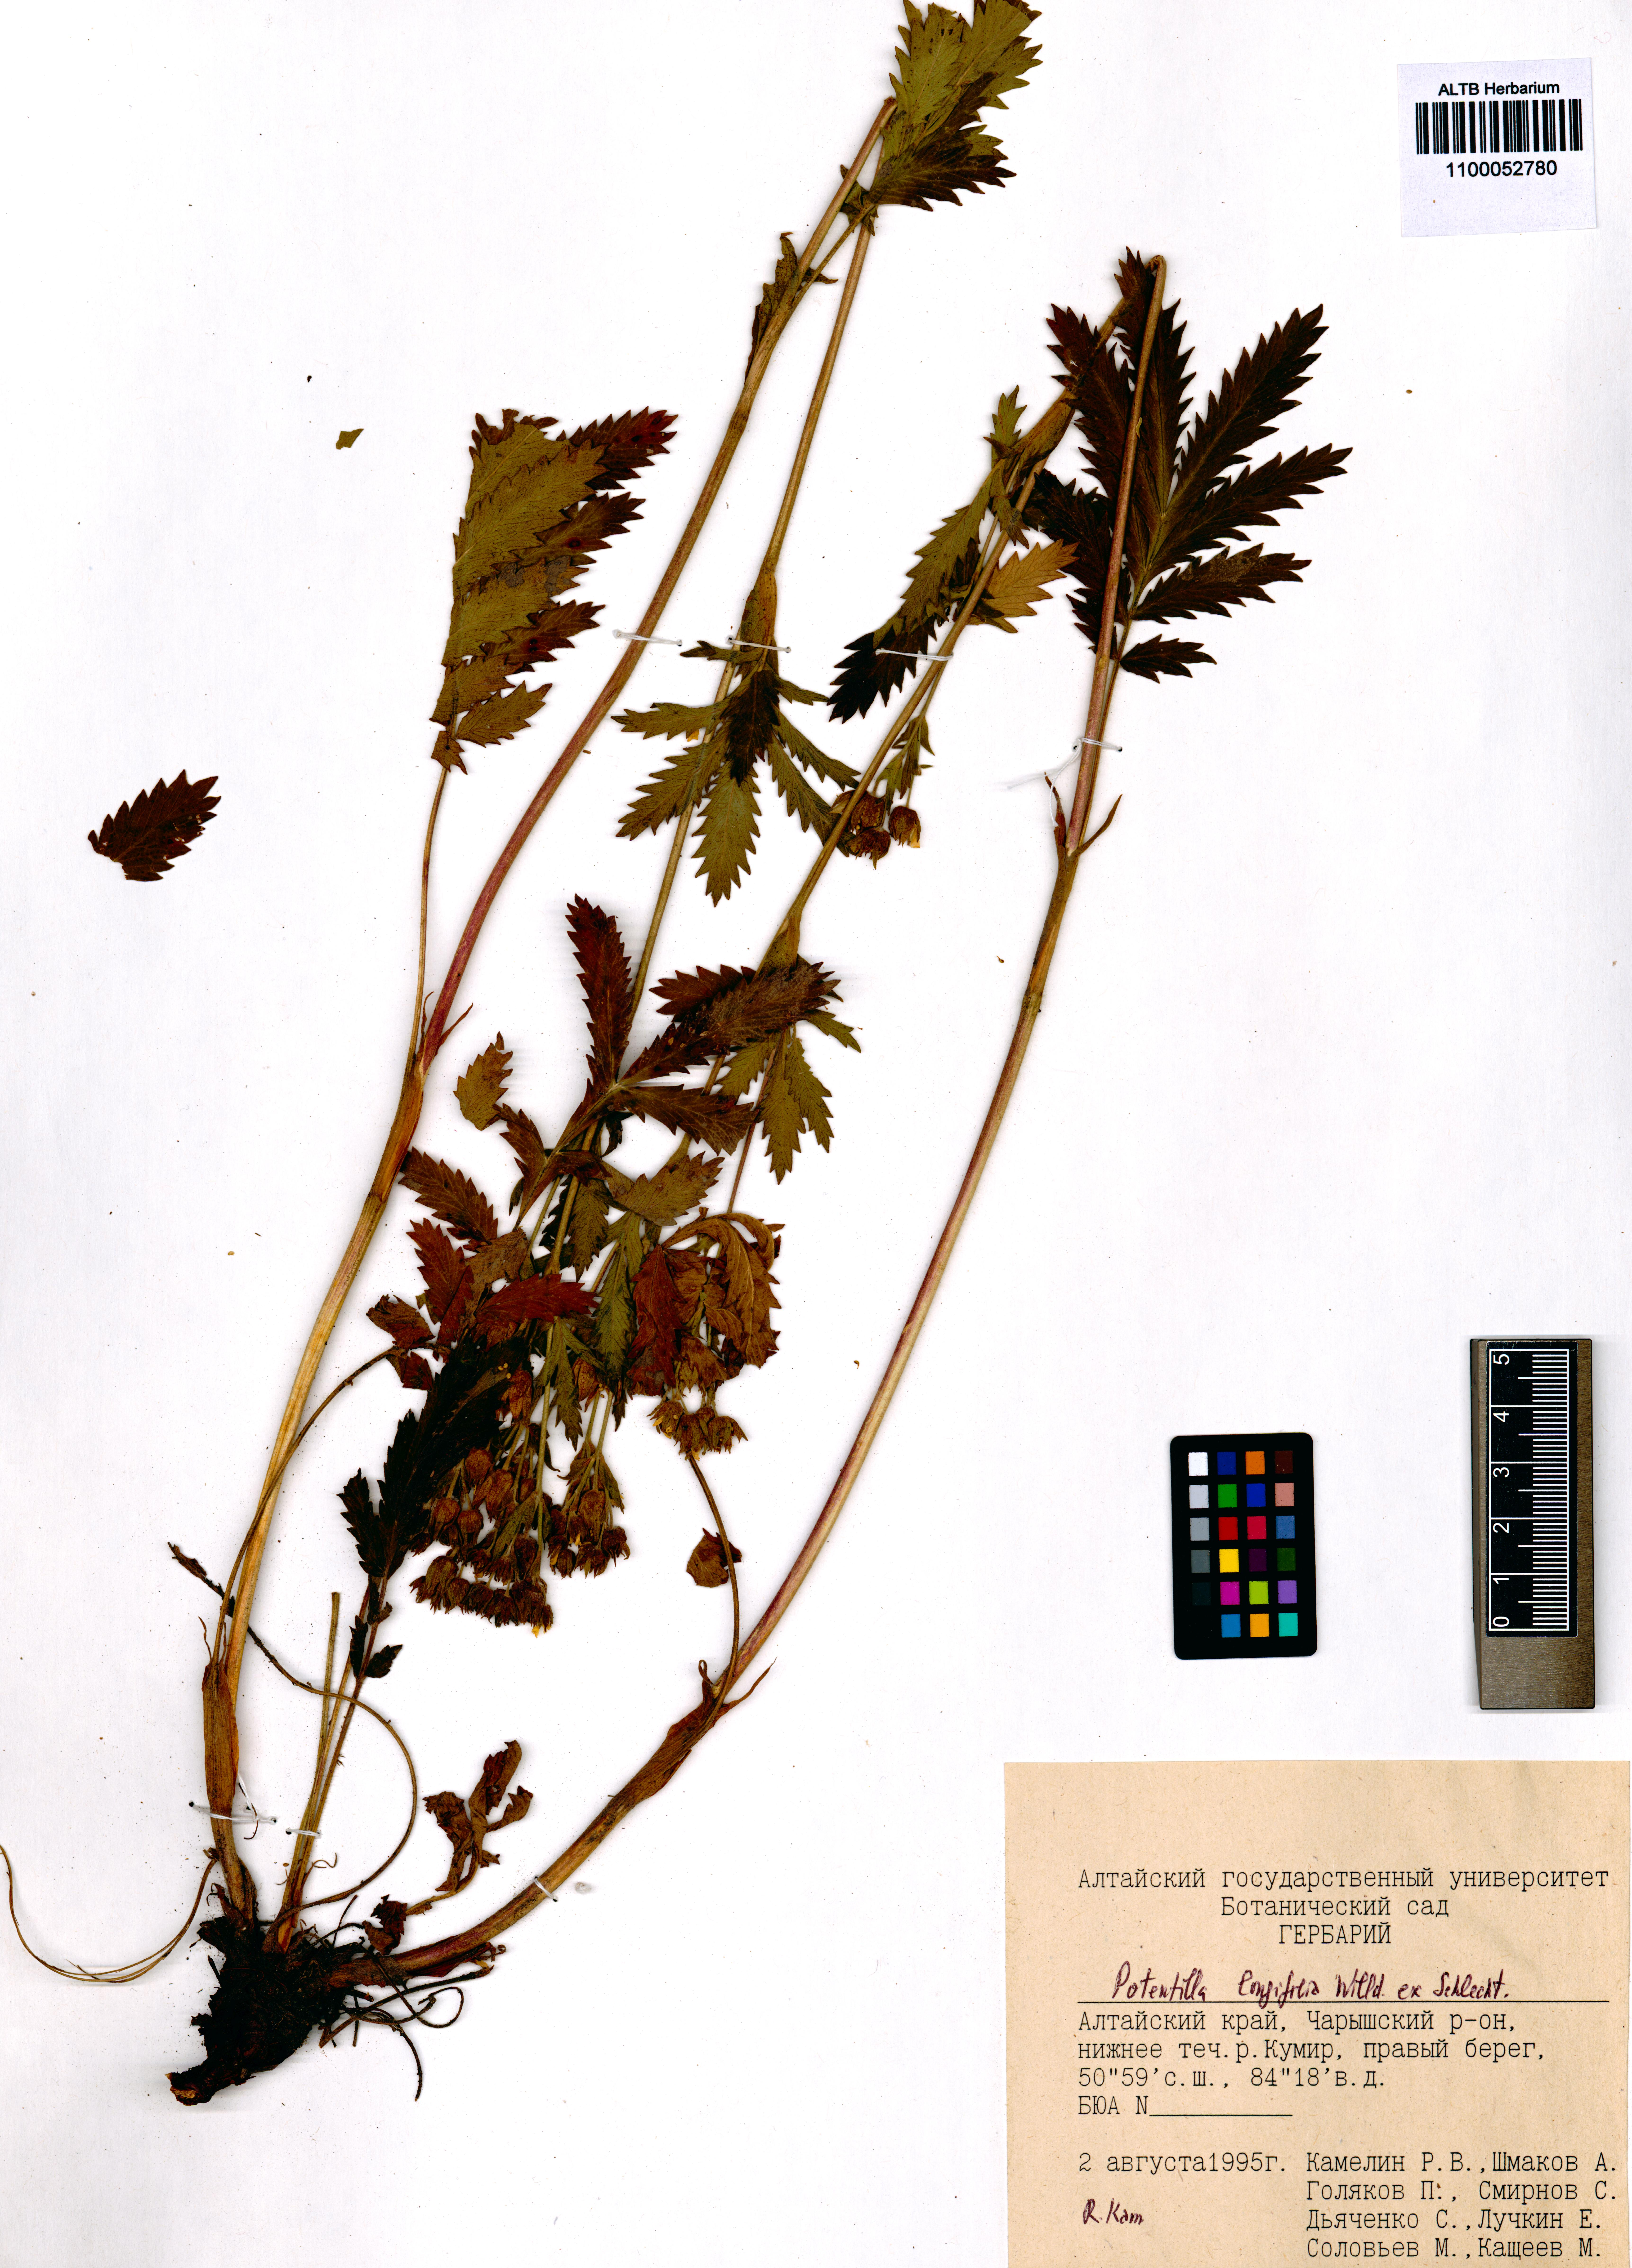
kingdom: Plantae
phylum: Tracheophyta
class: Magnoliopsida
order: Rosales
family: Rosaceae
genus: Potentilla
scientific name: Potentilla longifolia
